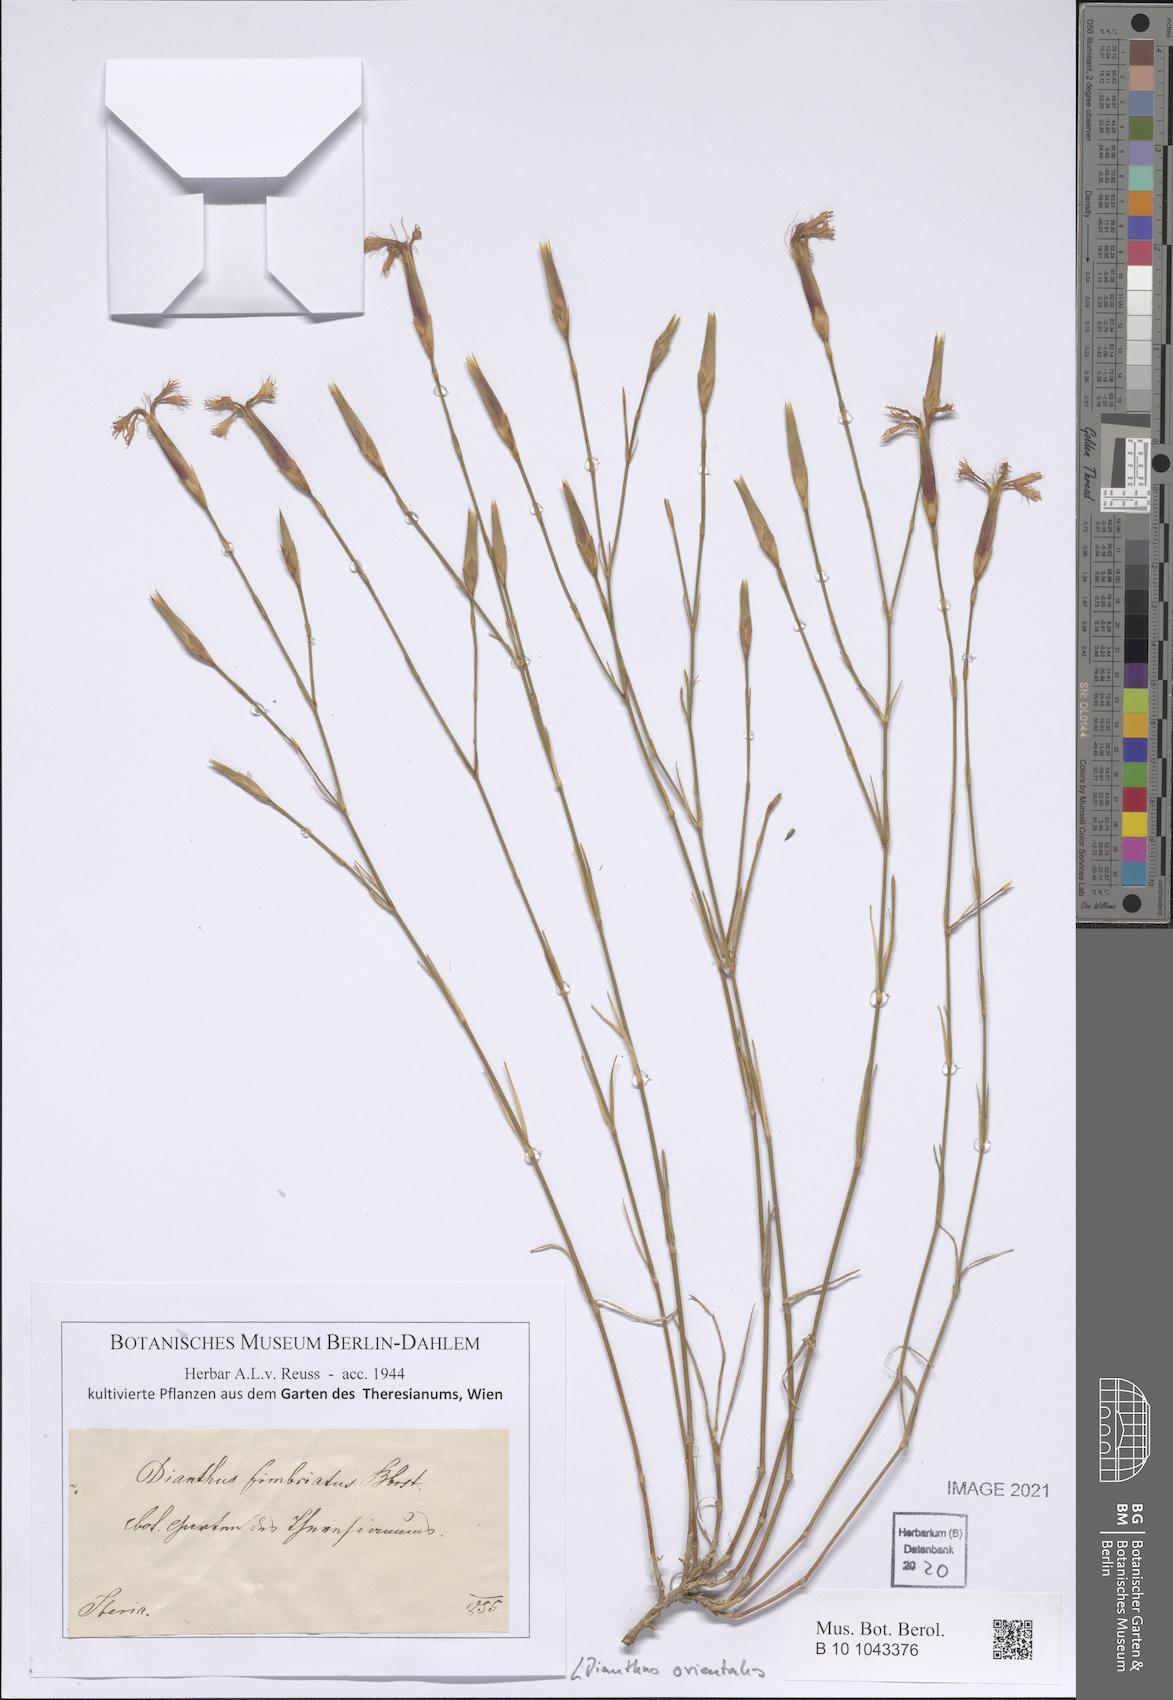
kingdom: Plantae
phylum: Tracheophyta
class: Magnoliopsida
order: Caryophyllales
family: Caryophyllaceae
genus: Dianthus
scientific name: Dianthus orientalis
